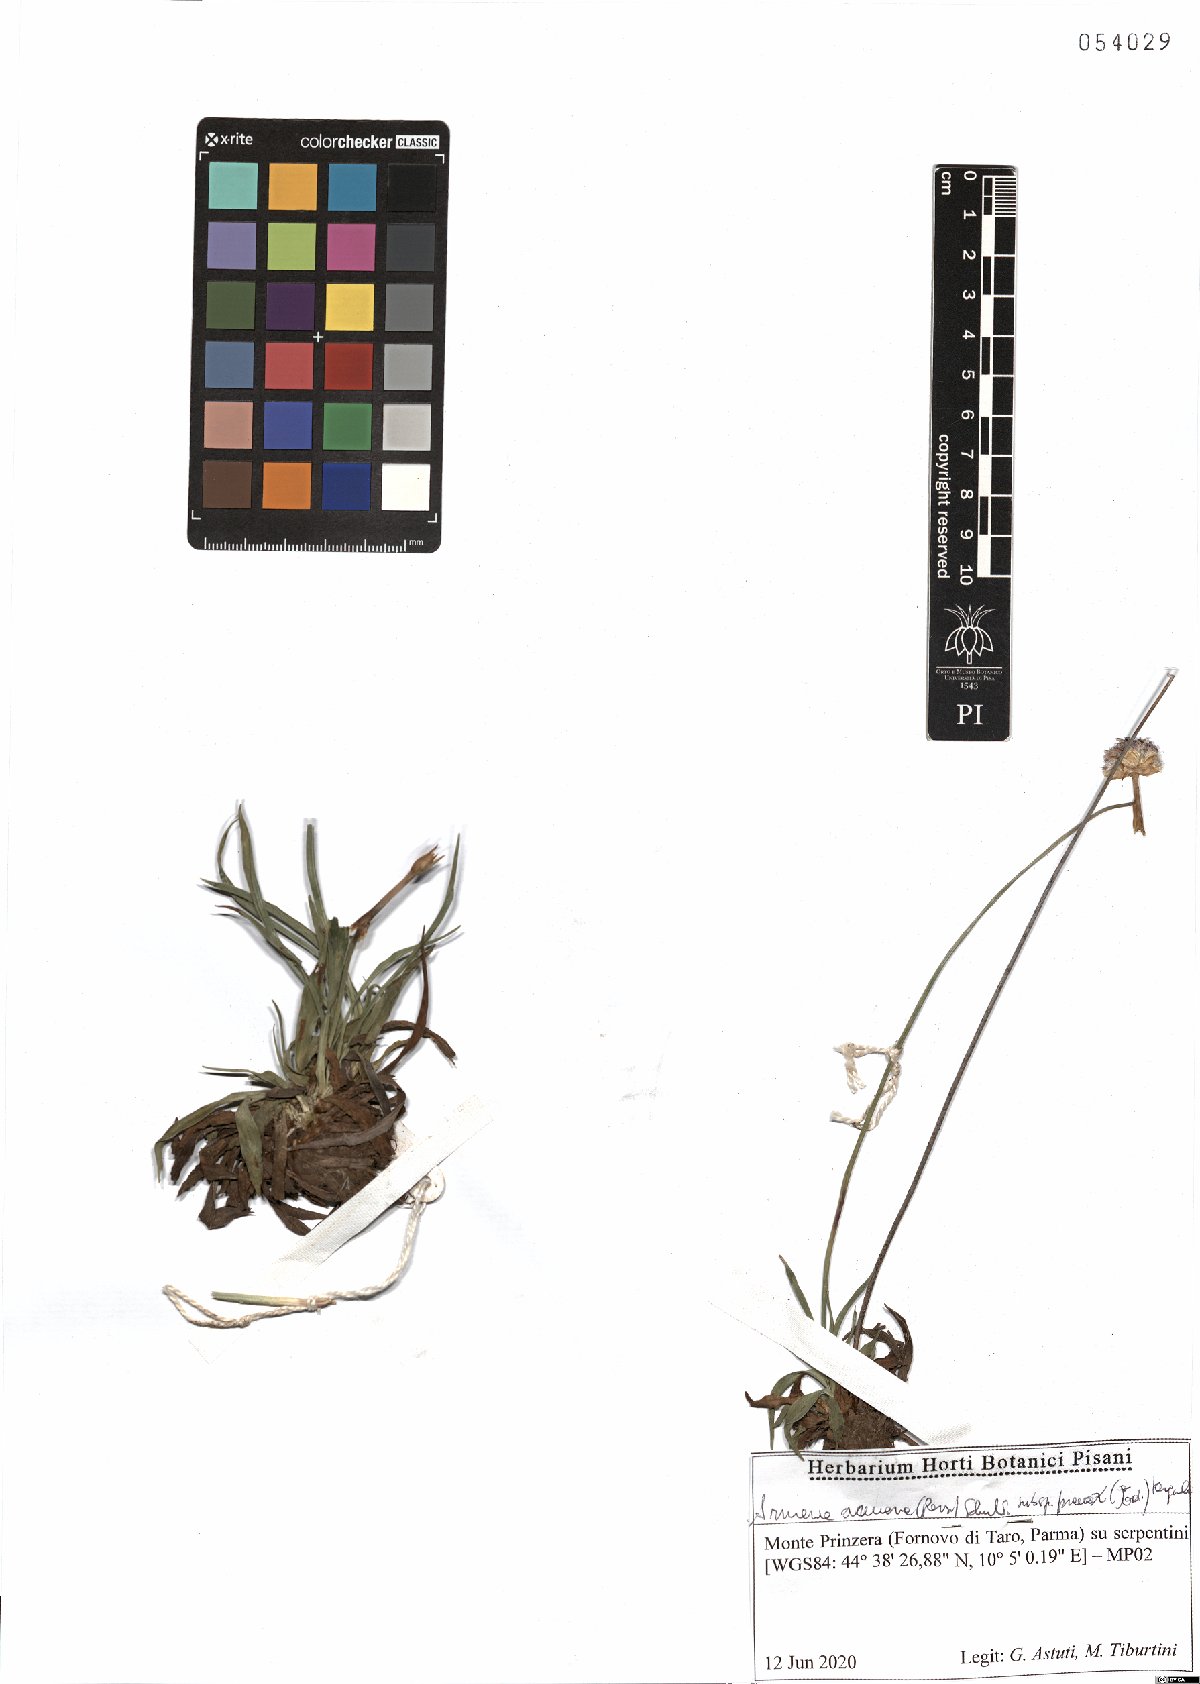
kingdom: Plantae
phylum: Tracheophyta
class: Magnoliopsida
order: Caryophyllales
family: Plumbaginaceae
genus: Armeria
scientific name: Armeria arenaria
